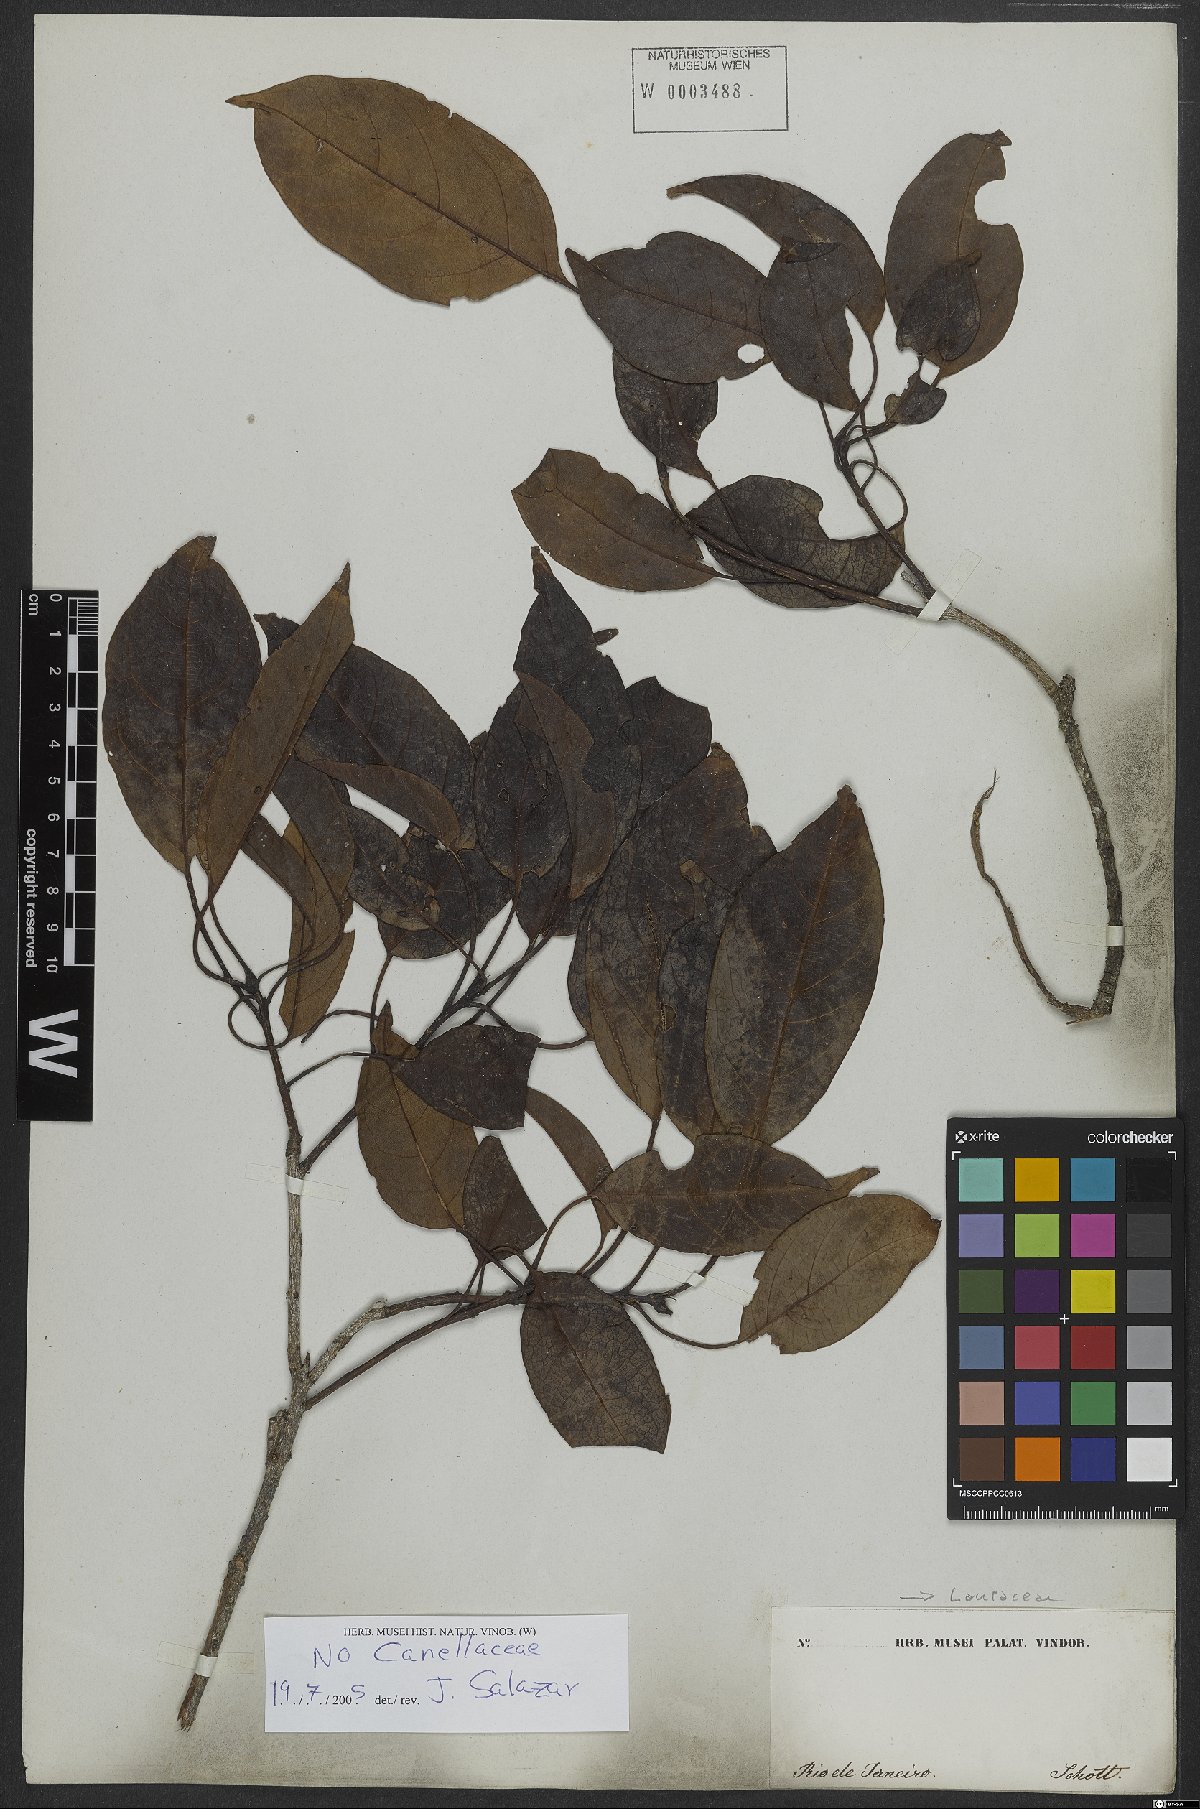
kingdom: Plantae
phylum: Tracheophyta
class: Magnoliopsida
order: Laurales
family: Lauraceae
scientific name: Lauraceae
